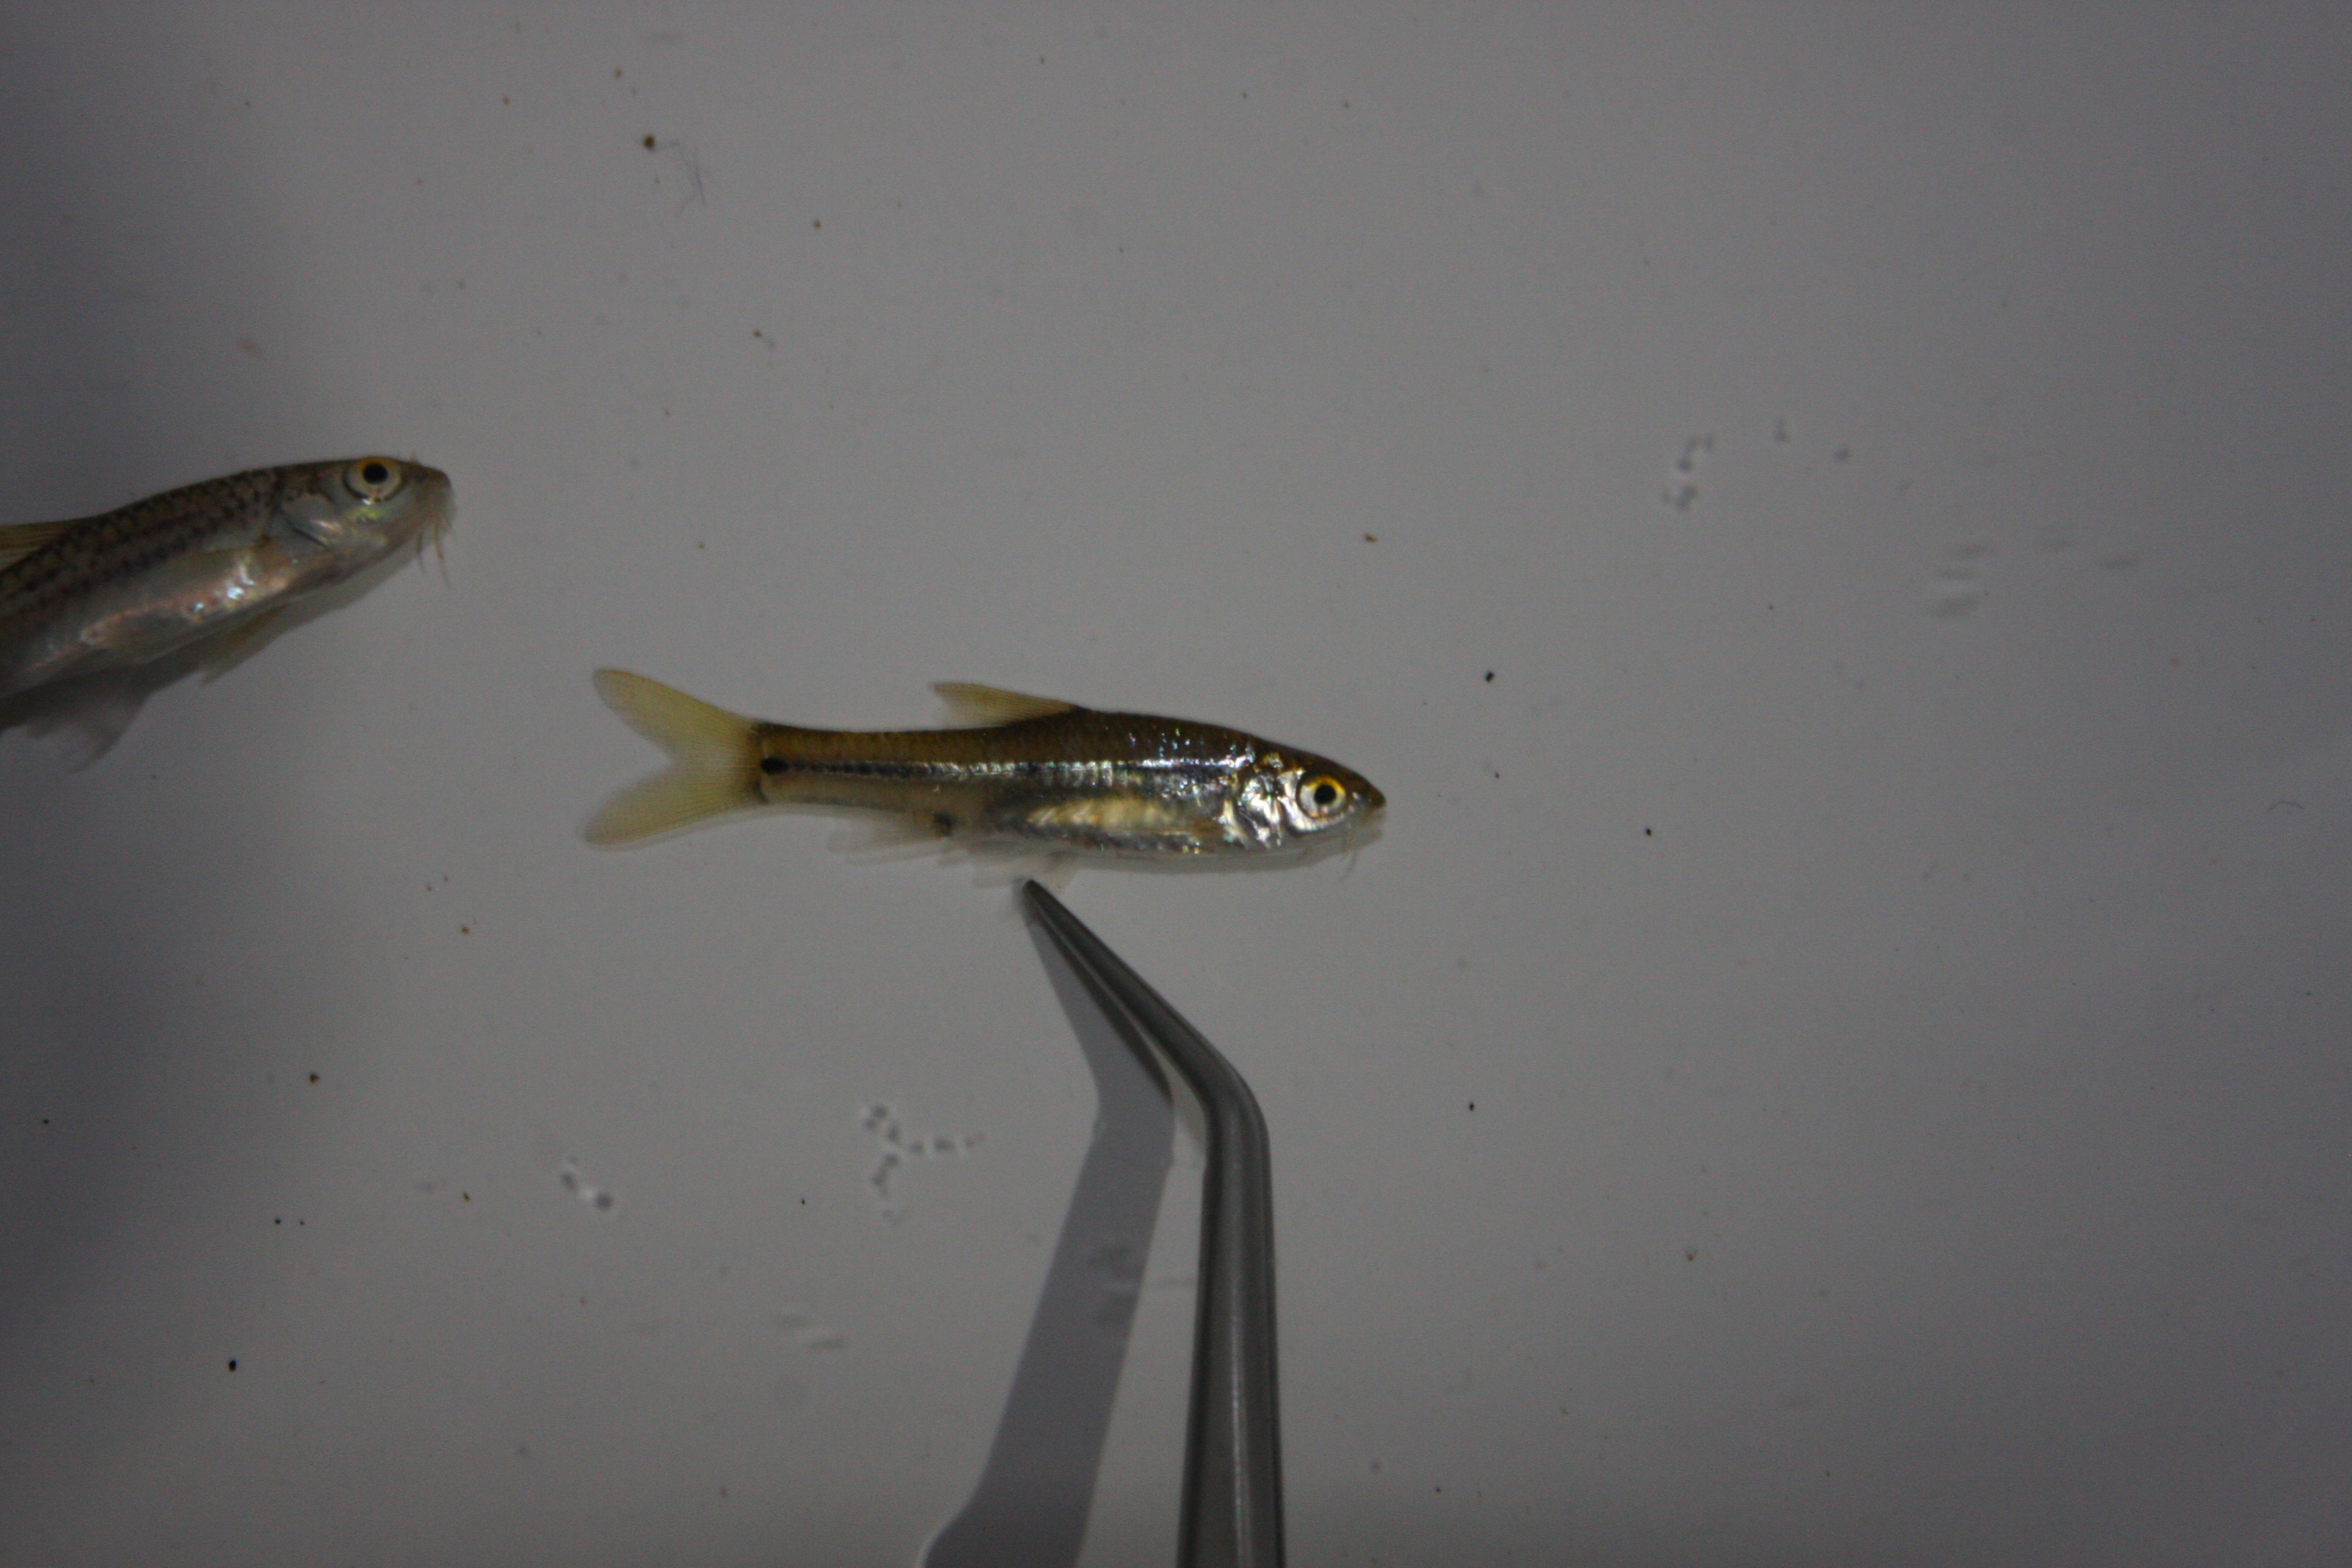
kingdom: Animalia
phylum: Chordata
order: Cypriniformes
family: Cyprinidae
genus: Barbus
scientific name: Barbus
